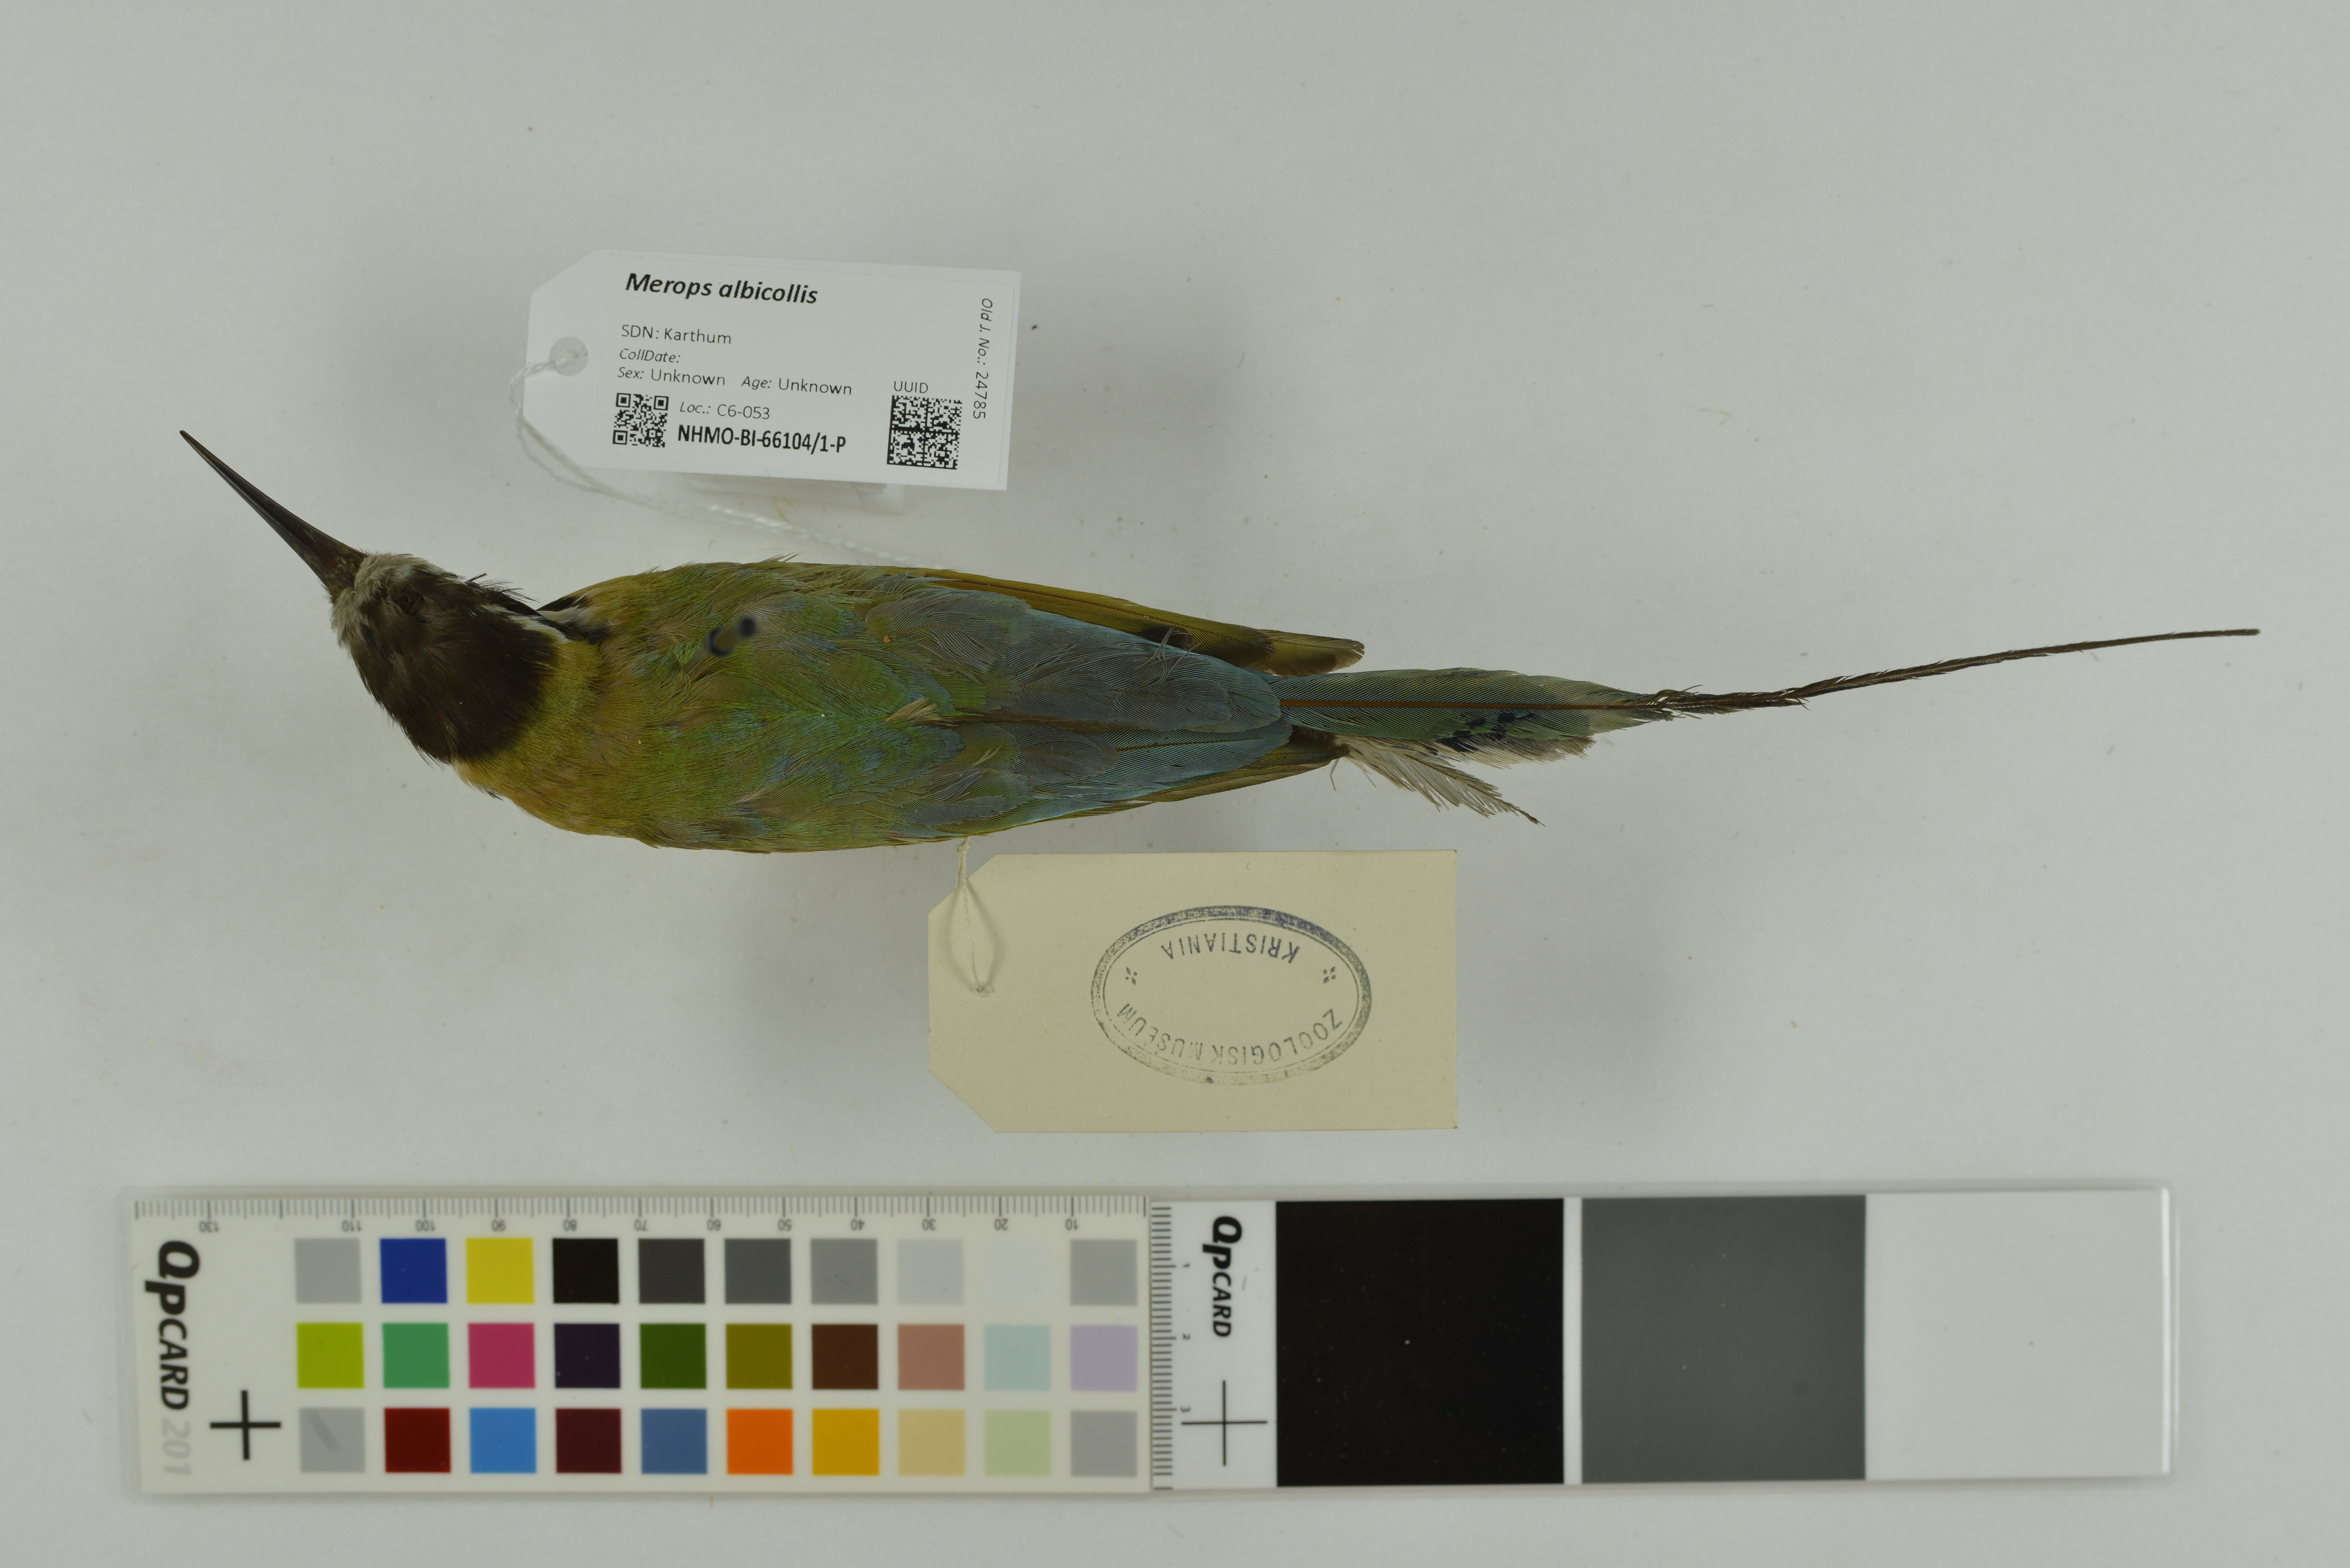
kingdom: Animalia
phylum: Chordata
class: Aves
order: Coraciiformes
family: Meropidae
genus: Merops
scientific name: Merops albicollis
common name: White-throated bee-eater
